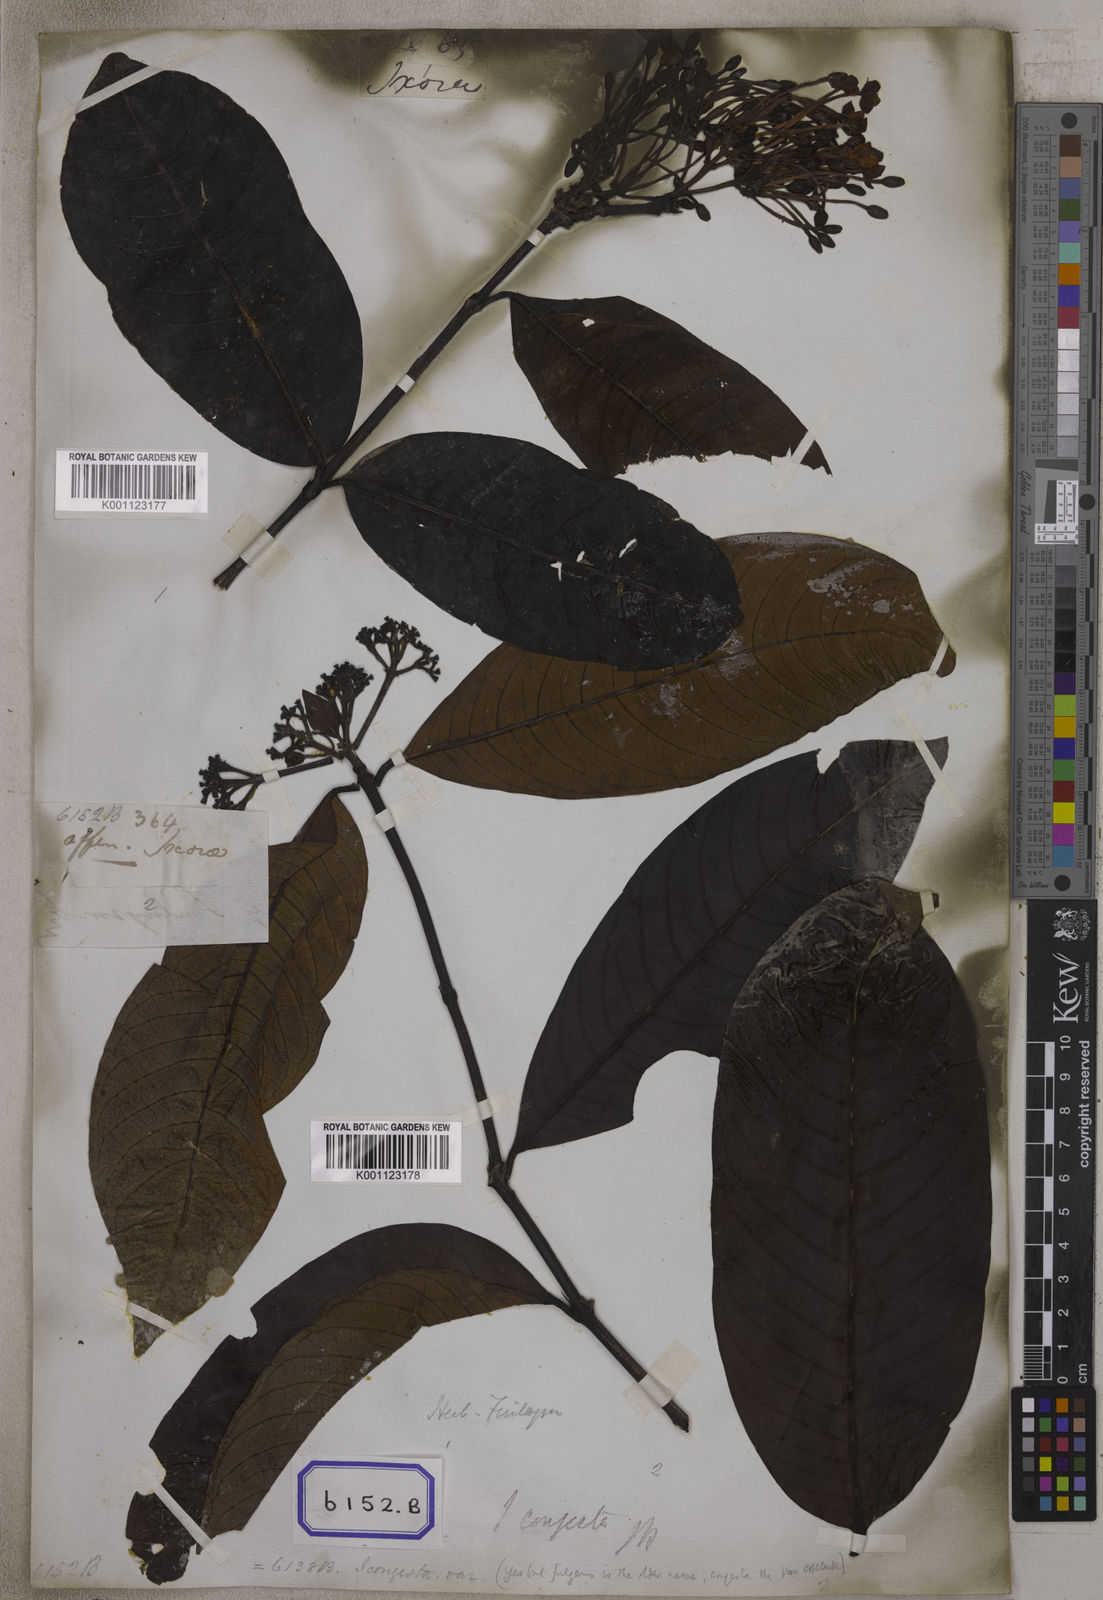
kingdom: Plantae
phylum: Tracheophyta
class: Magnoliopsida
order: Gentianales
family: Rubiaceae
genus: Ixora
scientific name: Ixora longifolia
